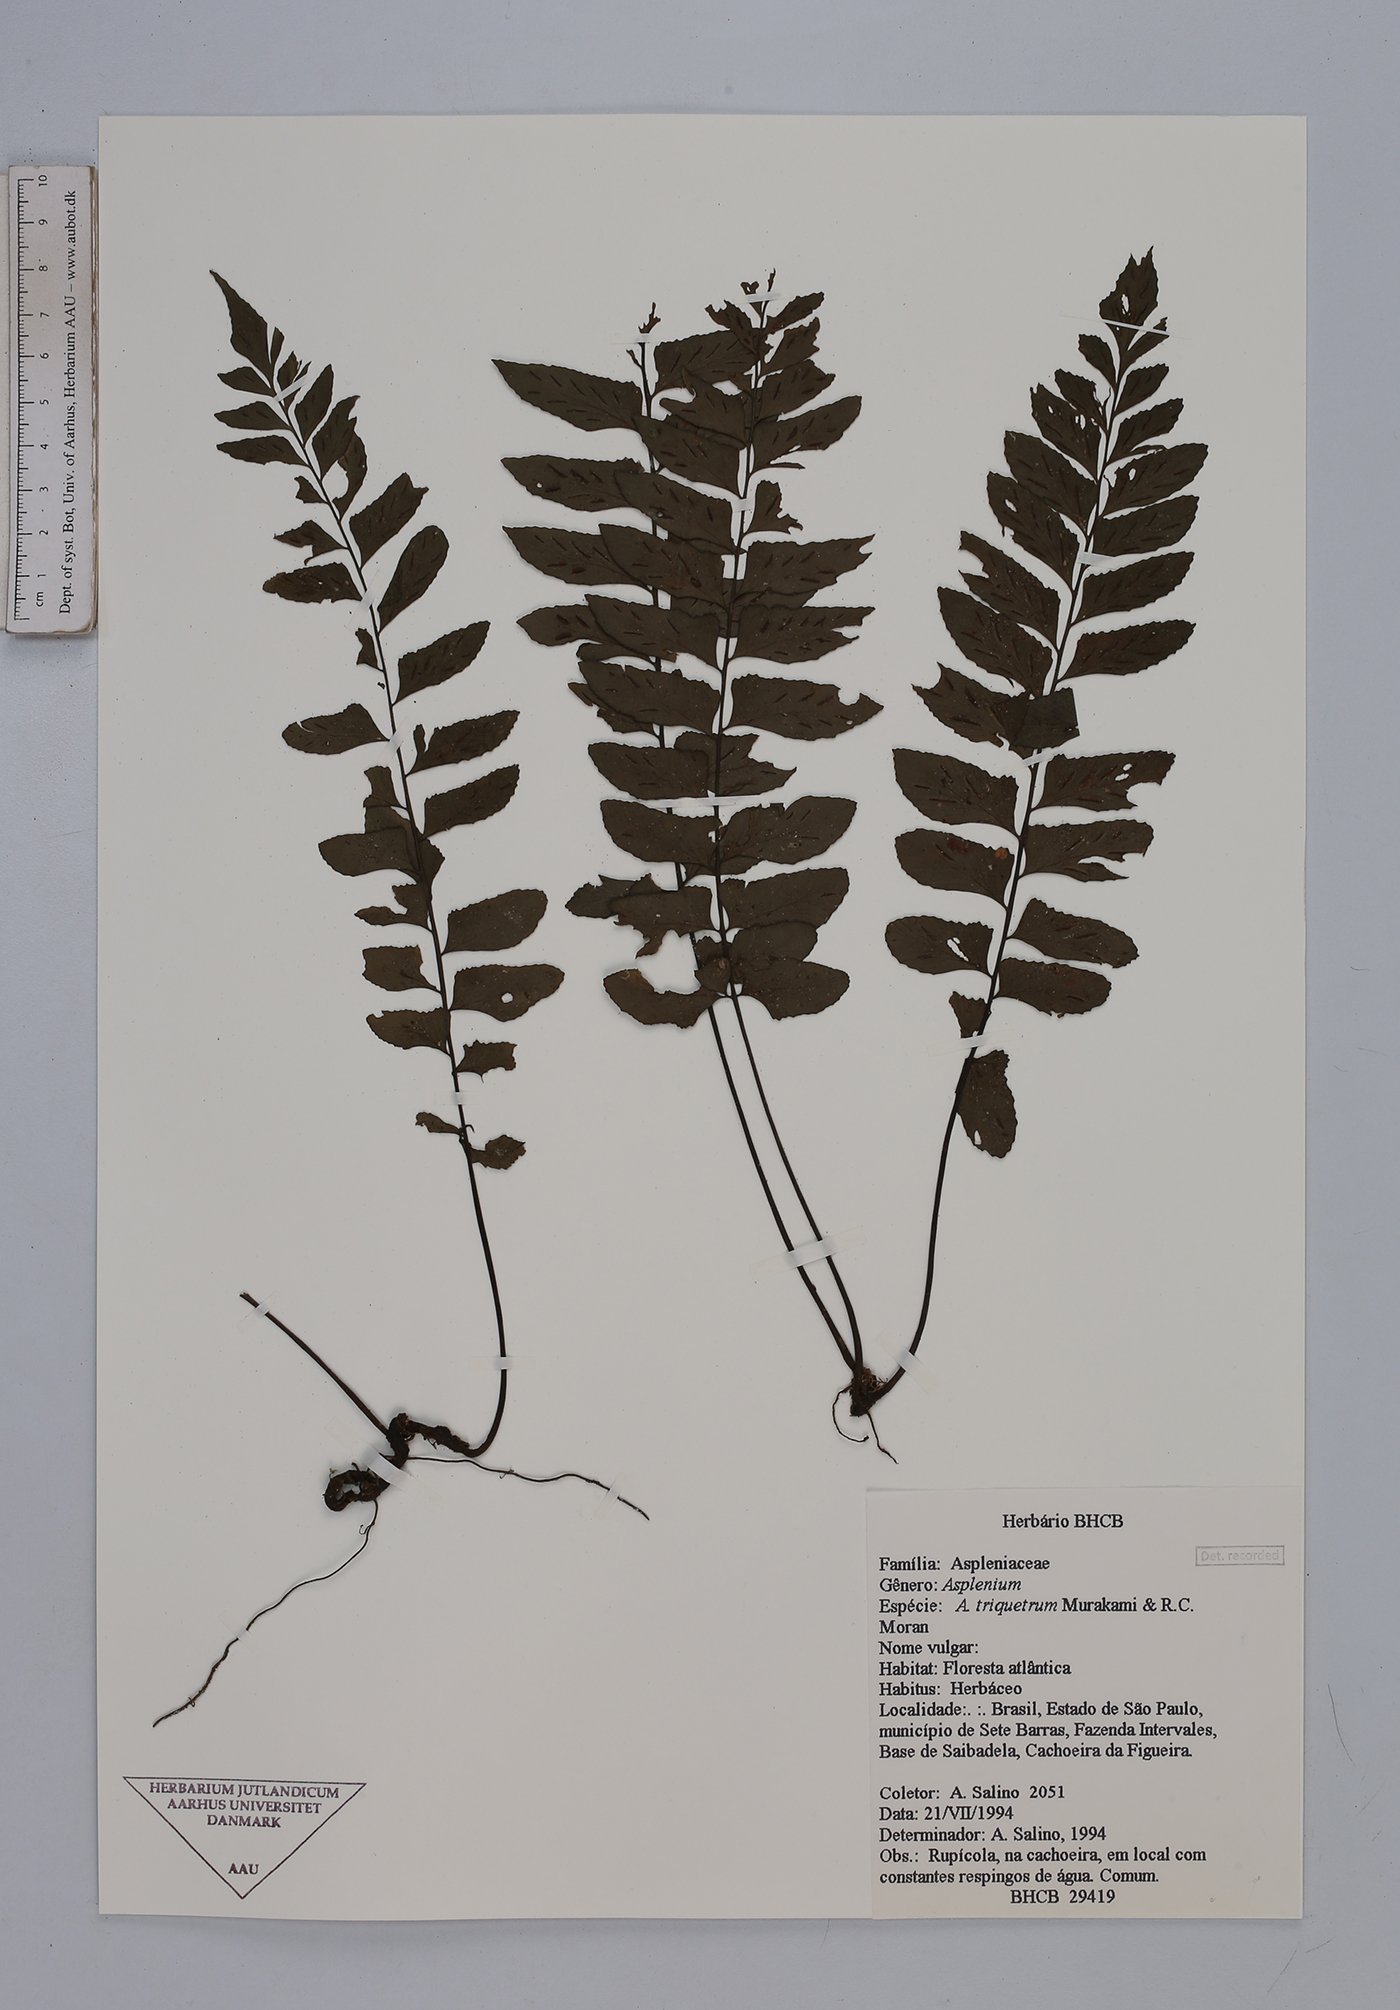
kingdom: Plantae
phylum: Tracheophyta
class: Polypodiopsida
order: Polypodiales
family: Aspleniaceae
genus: Hymenasplenium
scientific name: Hymenasplenium triquetrum
